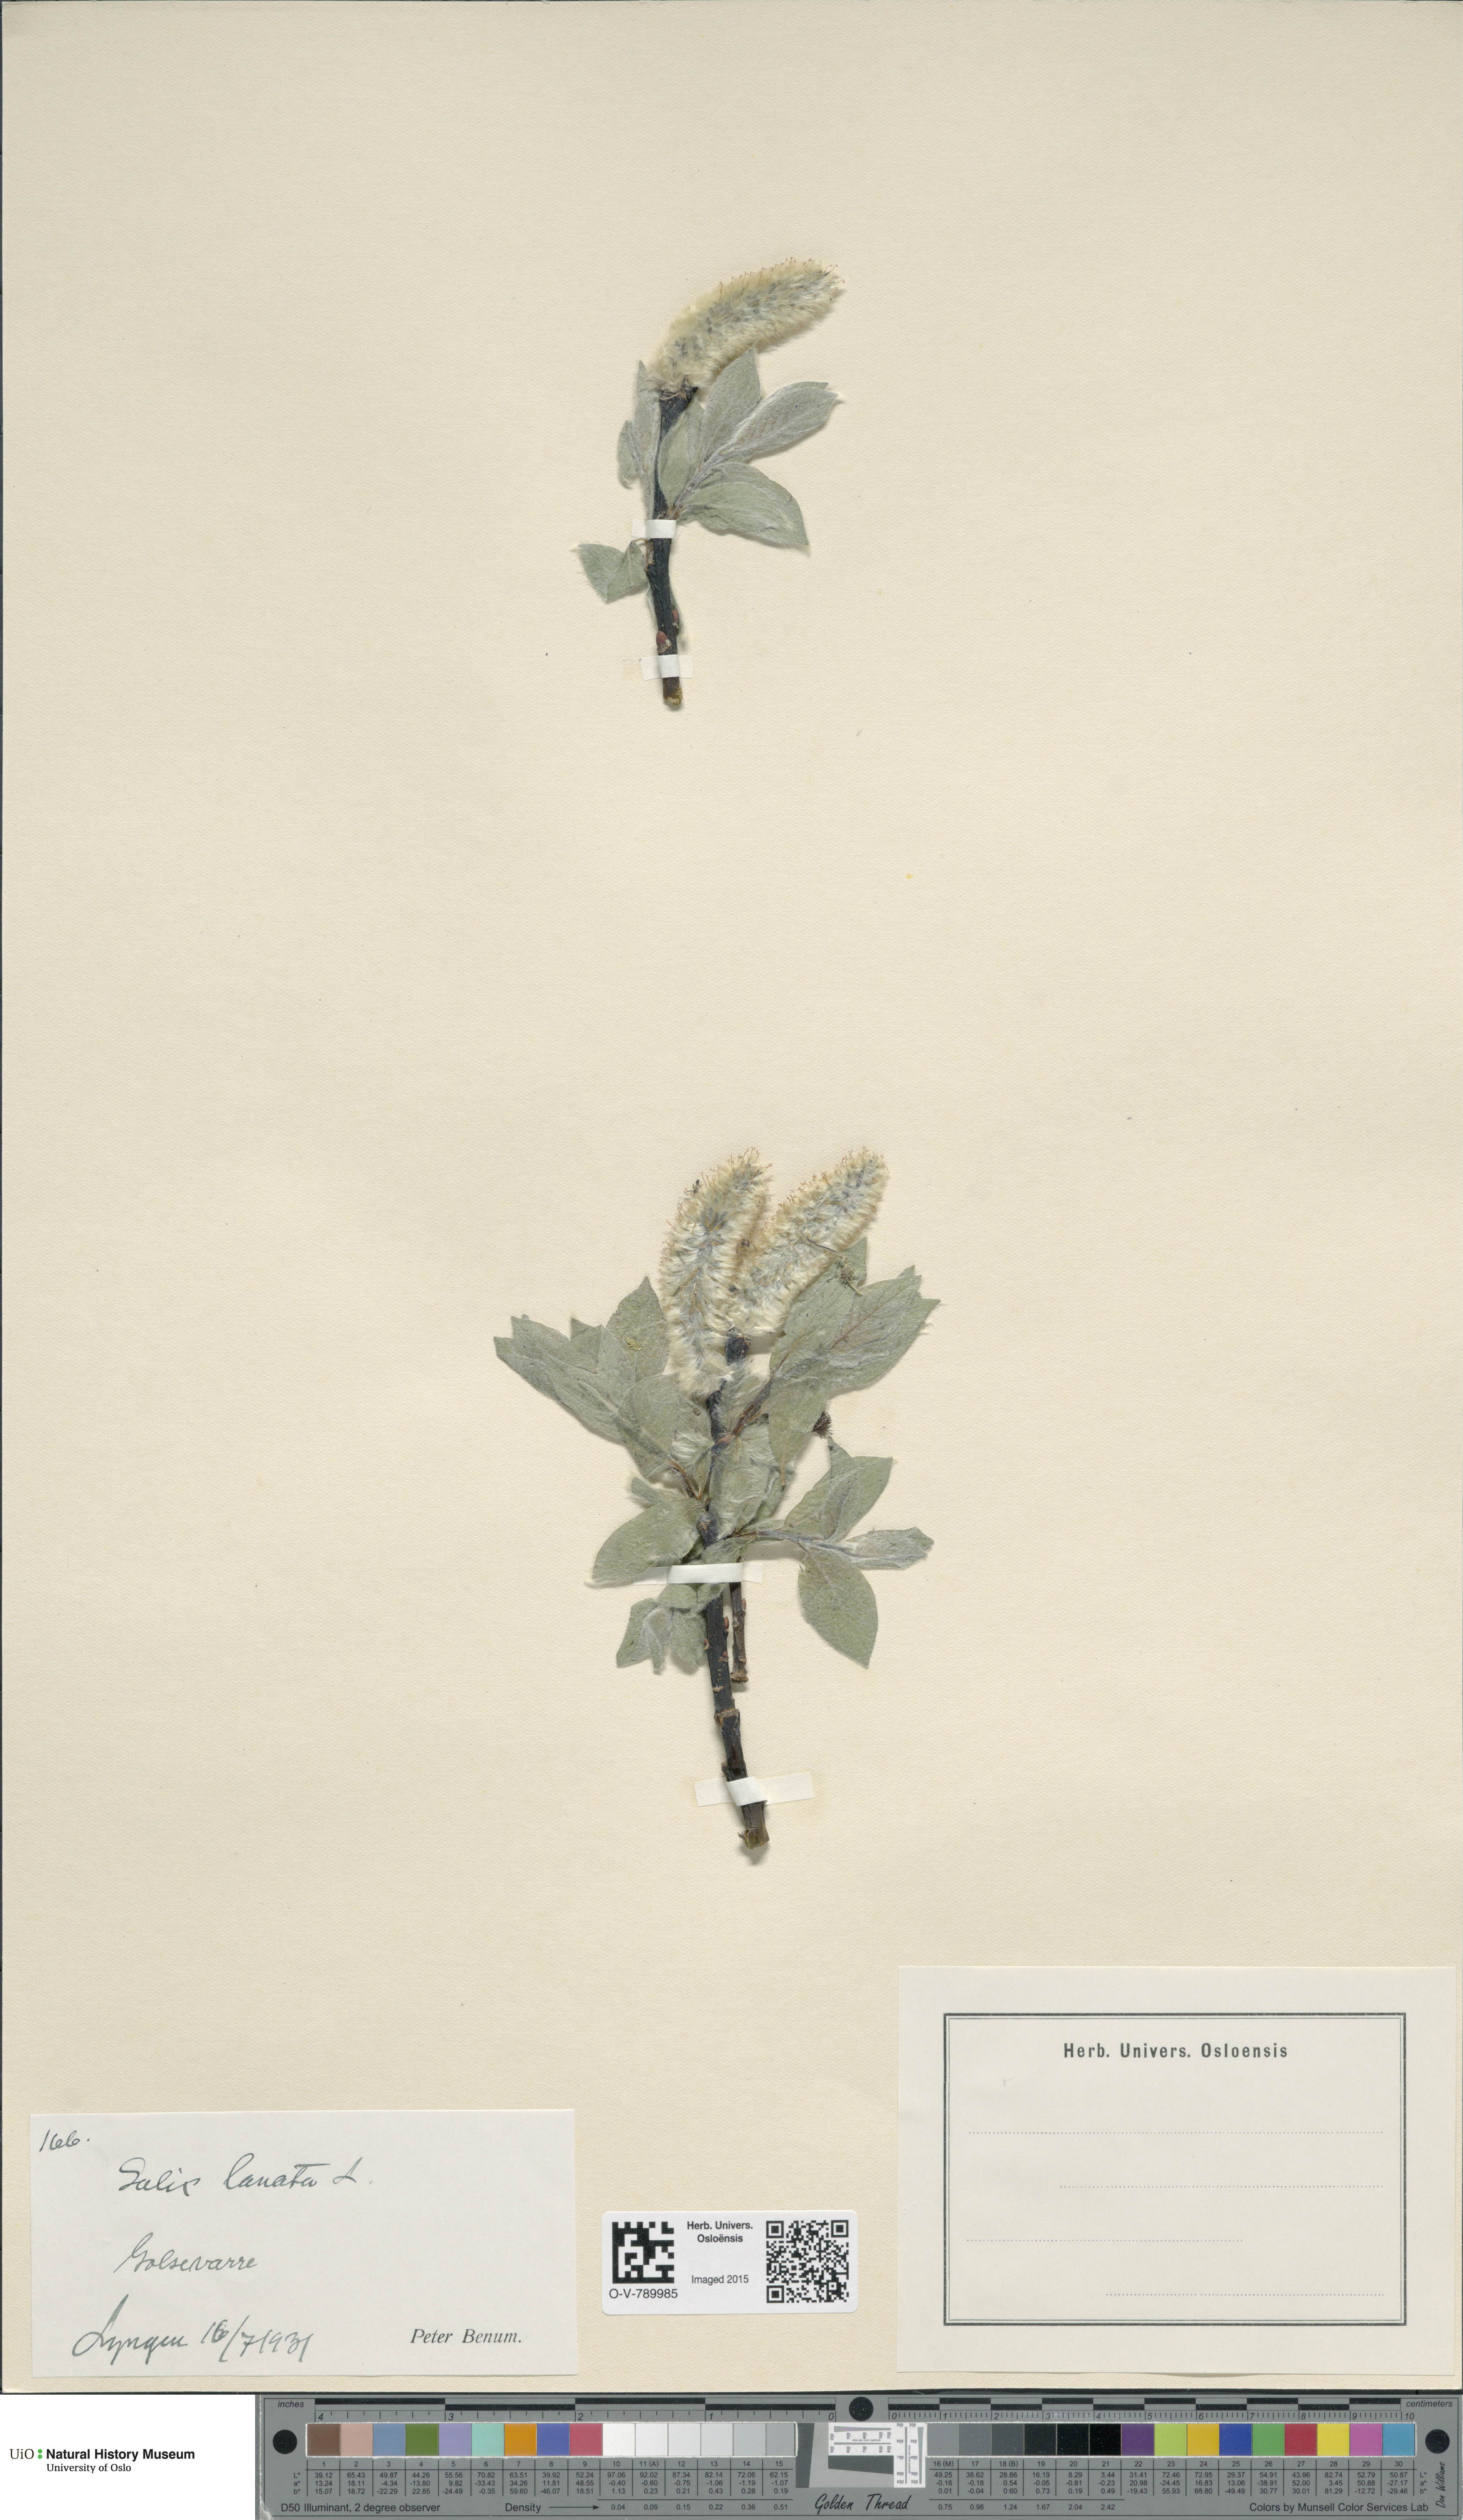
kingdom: Plantae
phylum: Tracheophyta
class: Magnoliopsida
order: Malpighiales
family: Salicaceae
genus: Salix
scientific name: Salix lanata
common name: Woolly willow
